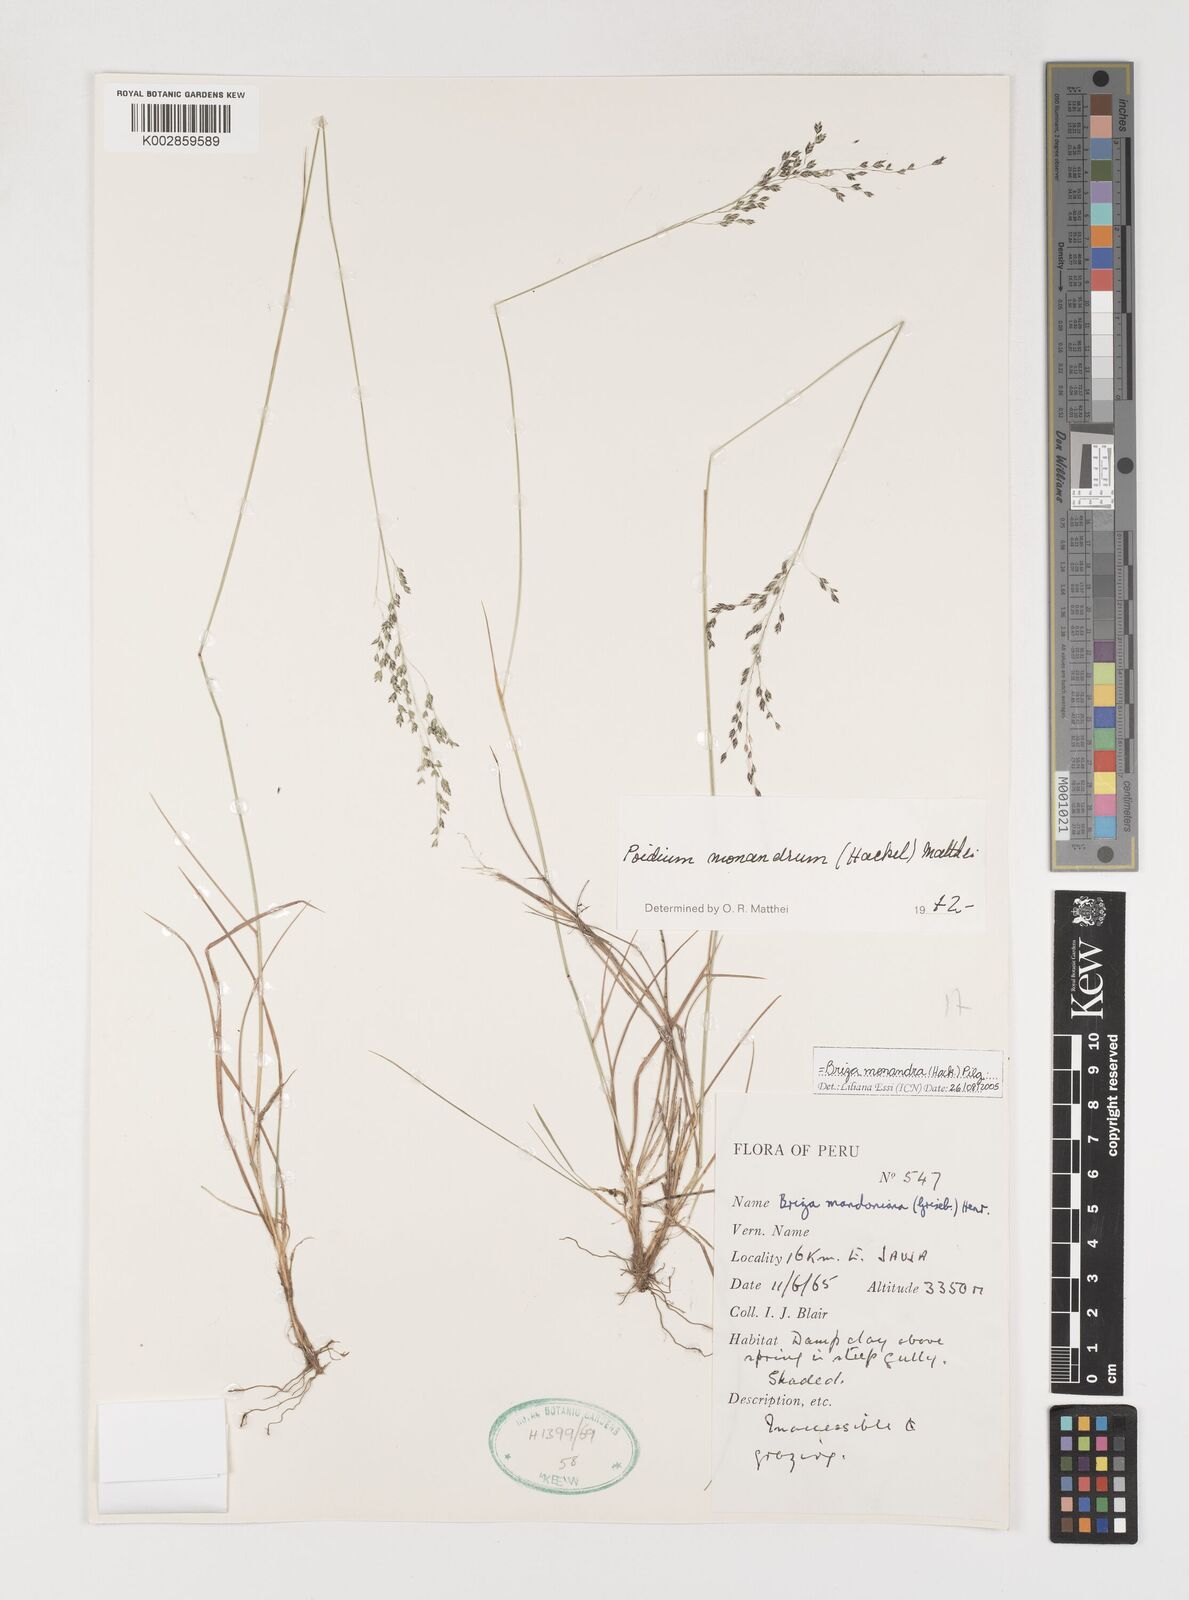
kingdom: Plantae
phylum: Tracheophyta
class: Liliopsida
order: Poales
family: Poaceae
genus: Poidium
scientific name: Poidium monandrum
